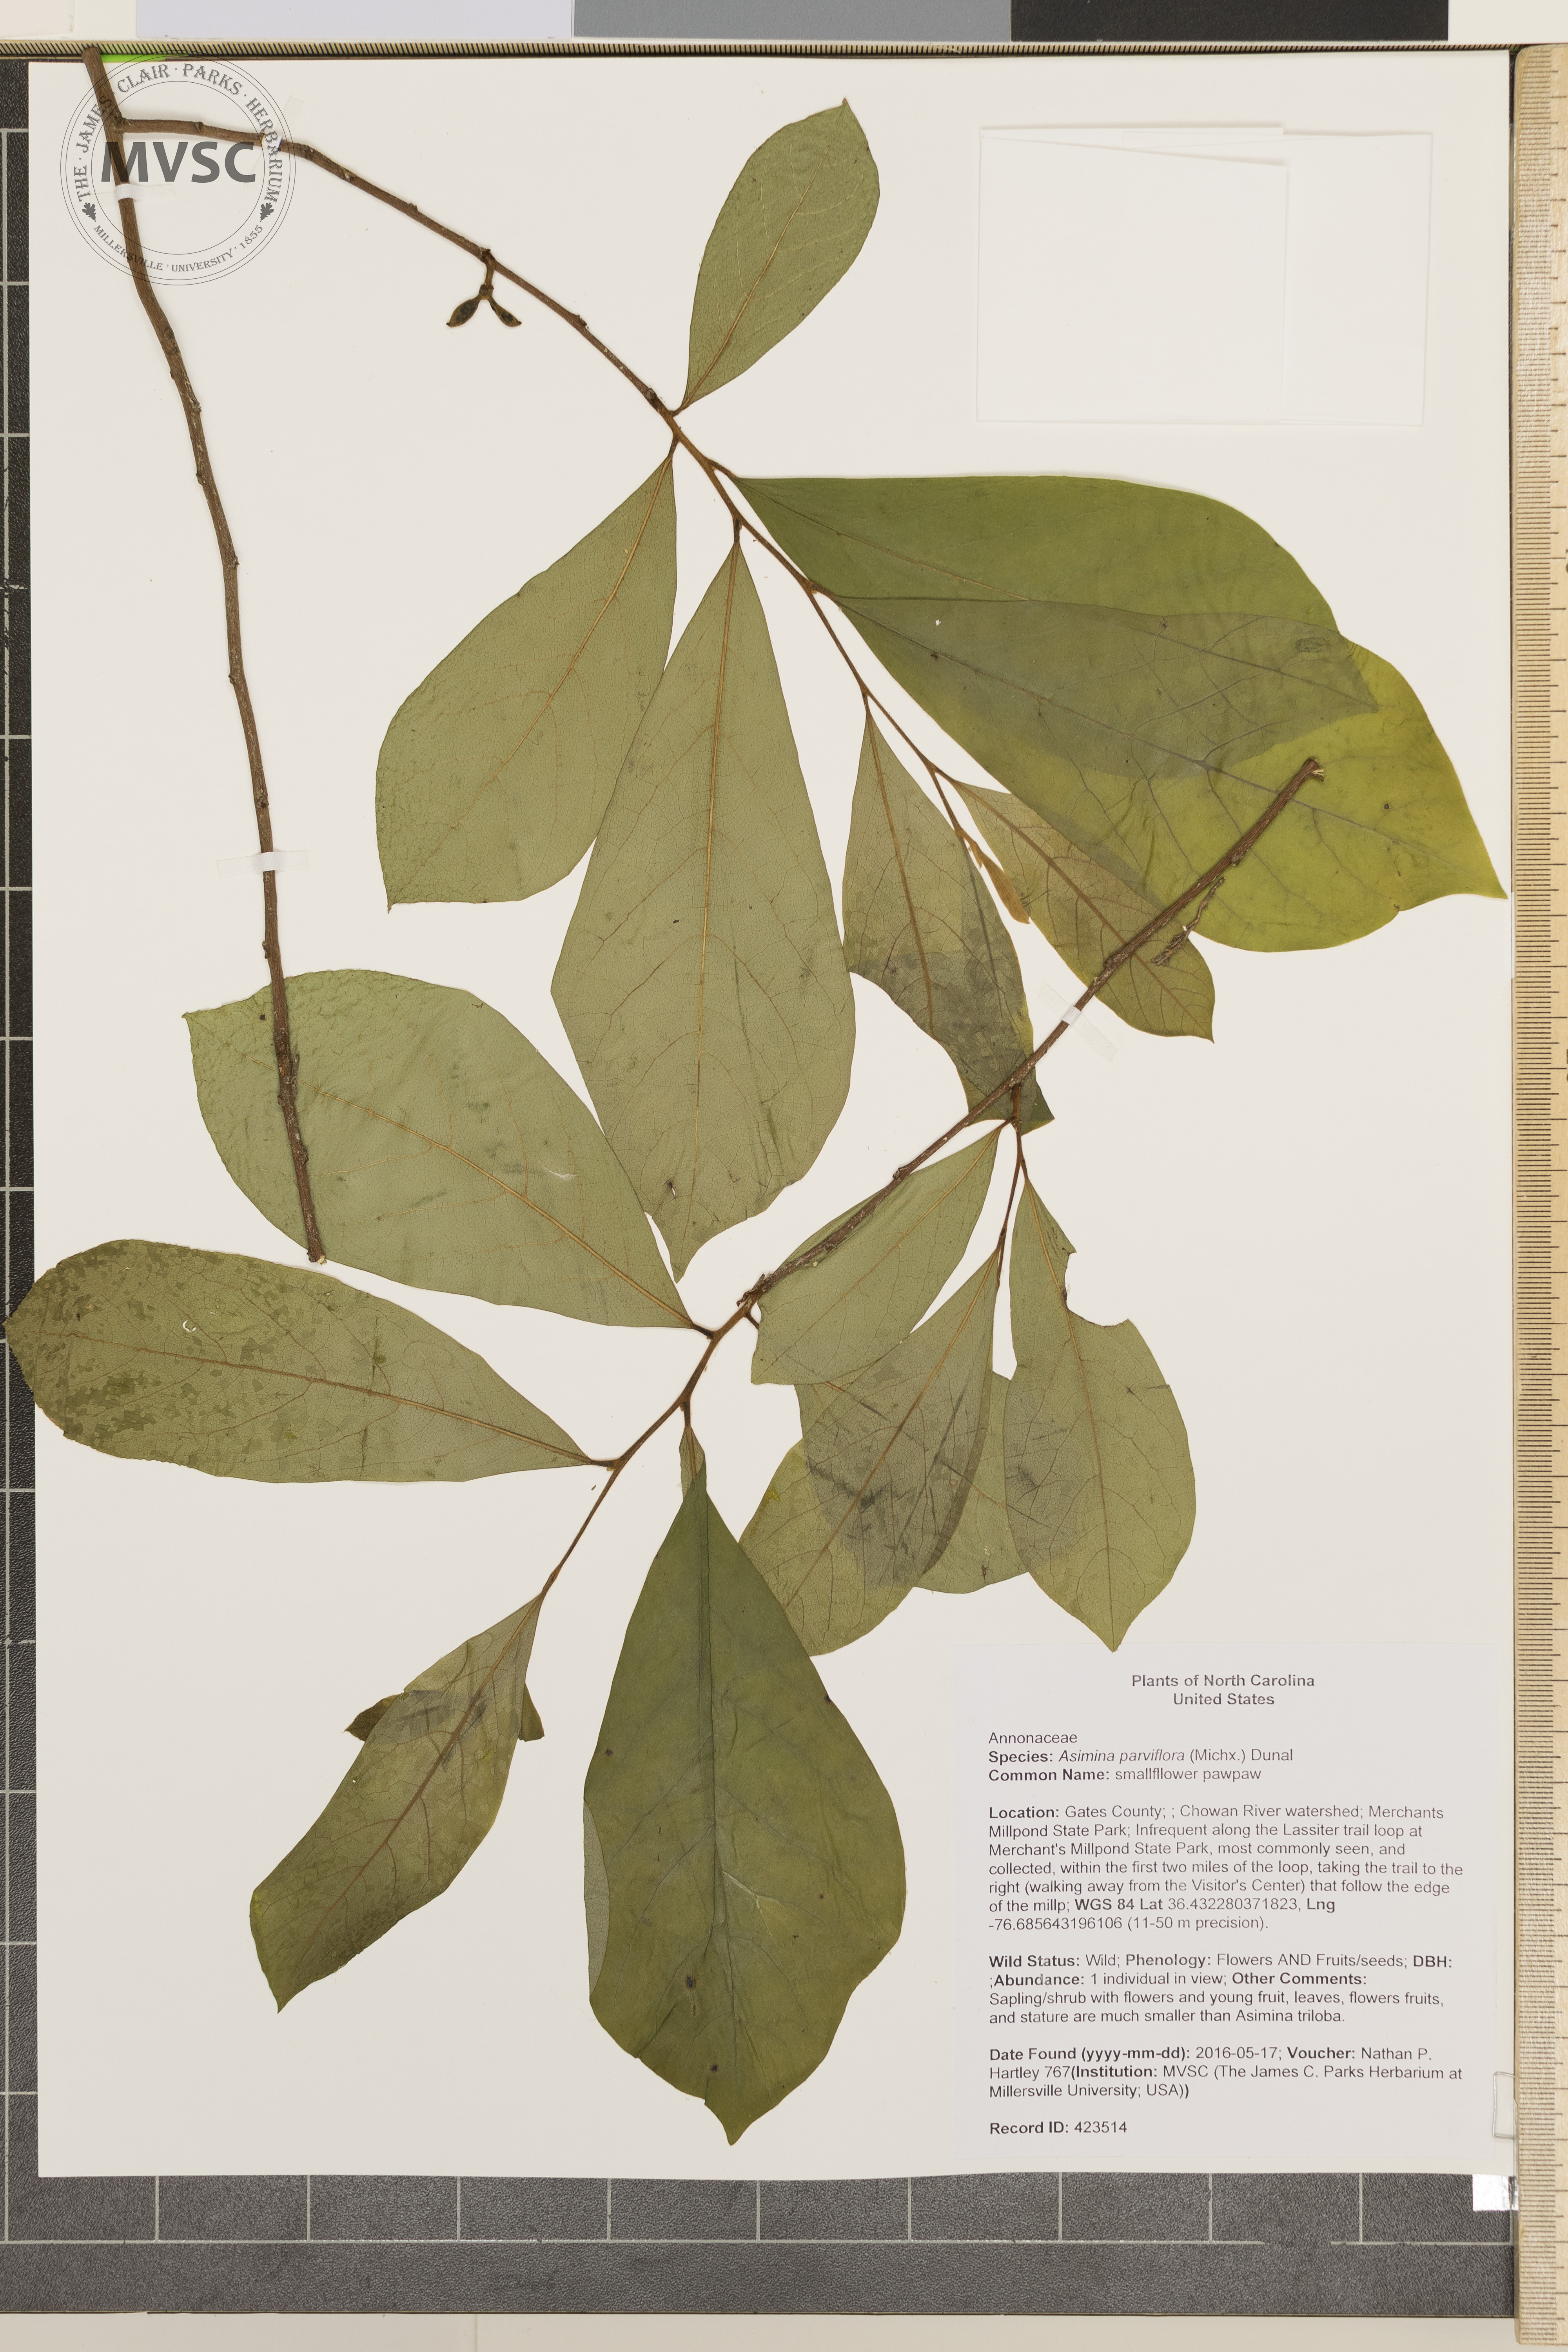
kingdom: Plantae
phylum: Tracheophyta
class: Magnoliopsida
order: Magnoliales
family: Annonaceae
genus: Asimina
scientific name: Asimina parviflora
